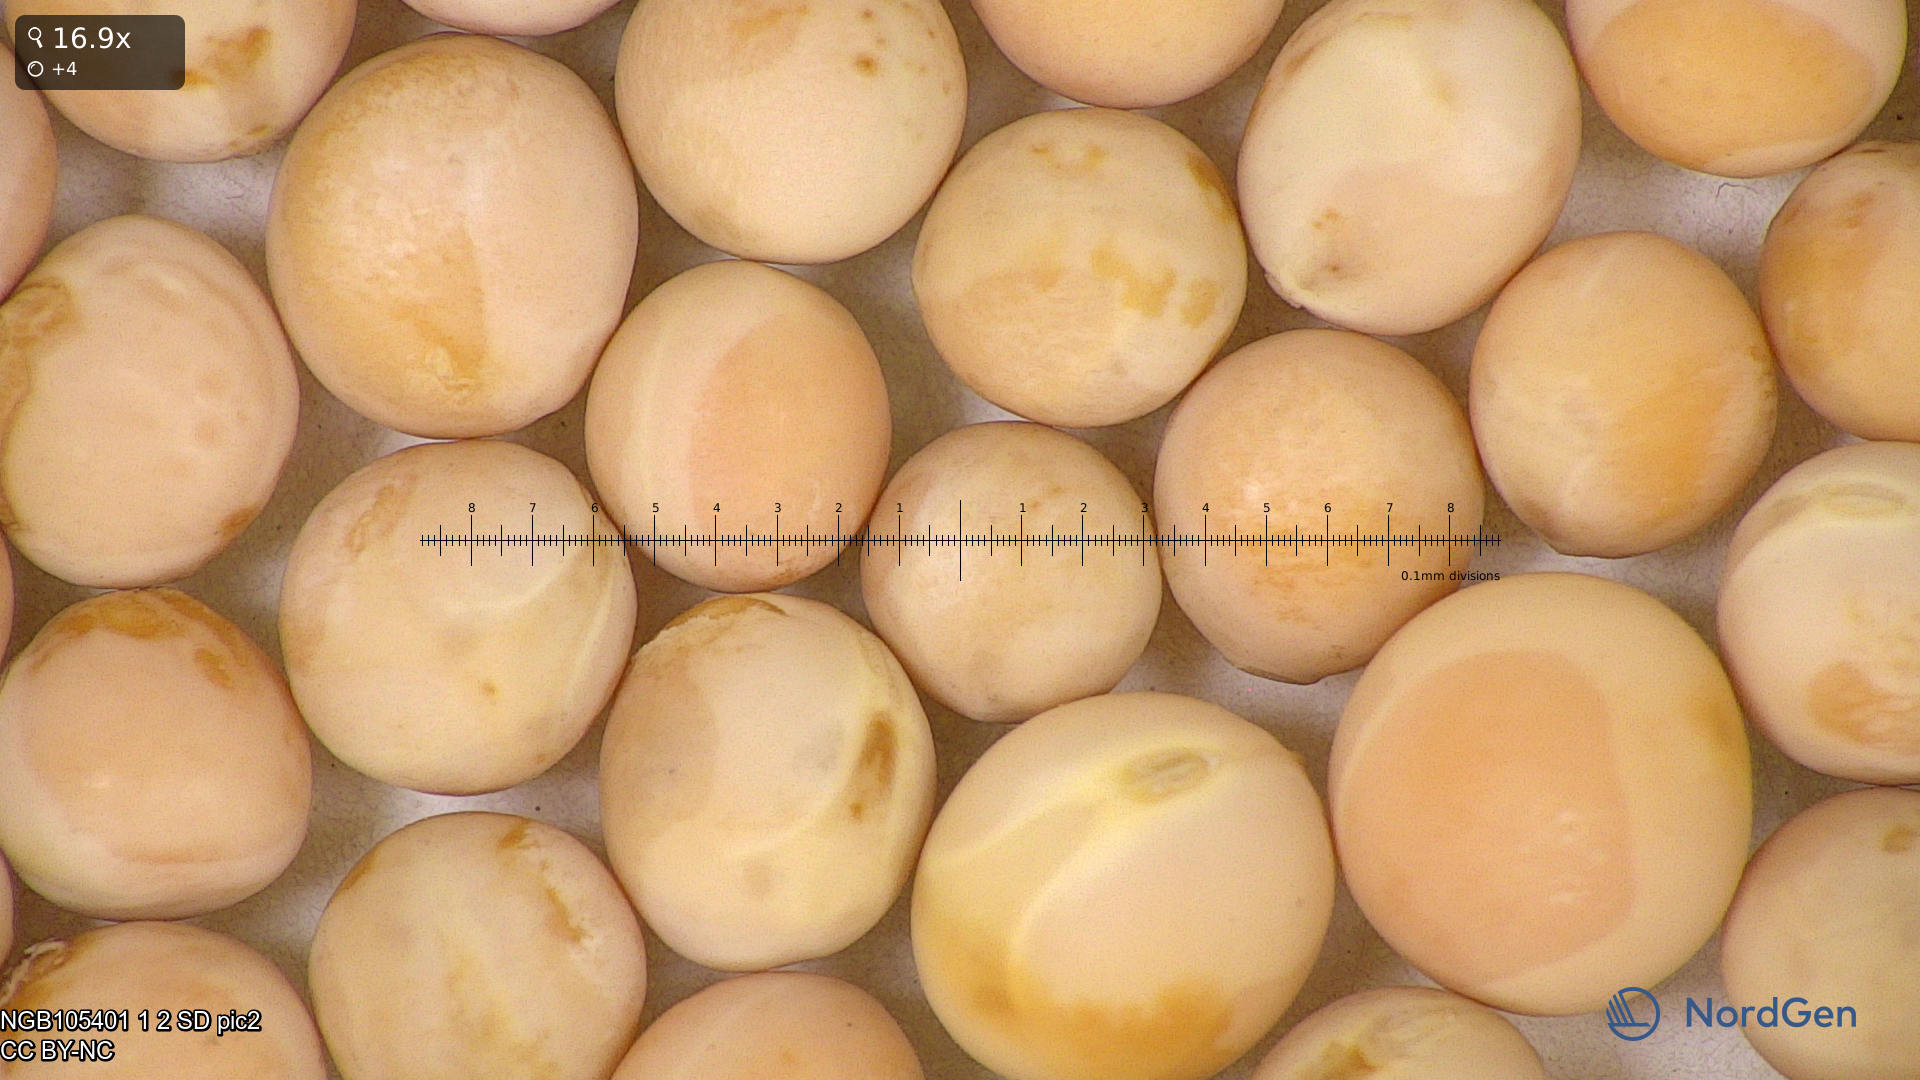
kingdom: Plantae
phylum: Tracheophyta
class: Magnoliopsida
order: Fabales
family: Fabaceae
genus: Lathyrus
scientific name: Lathyrus oleraceus
